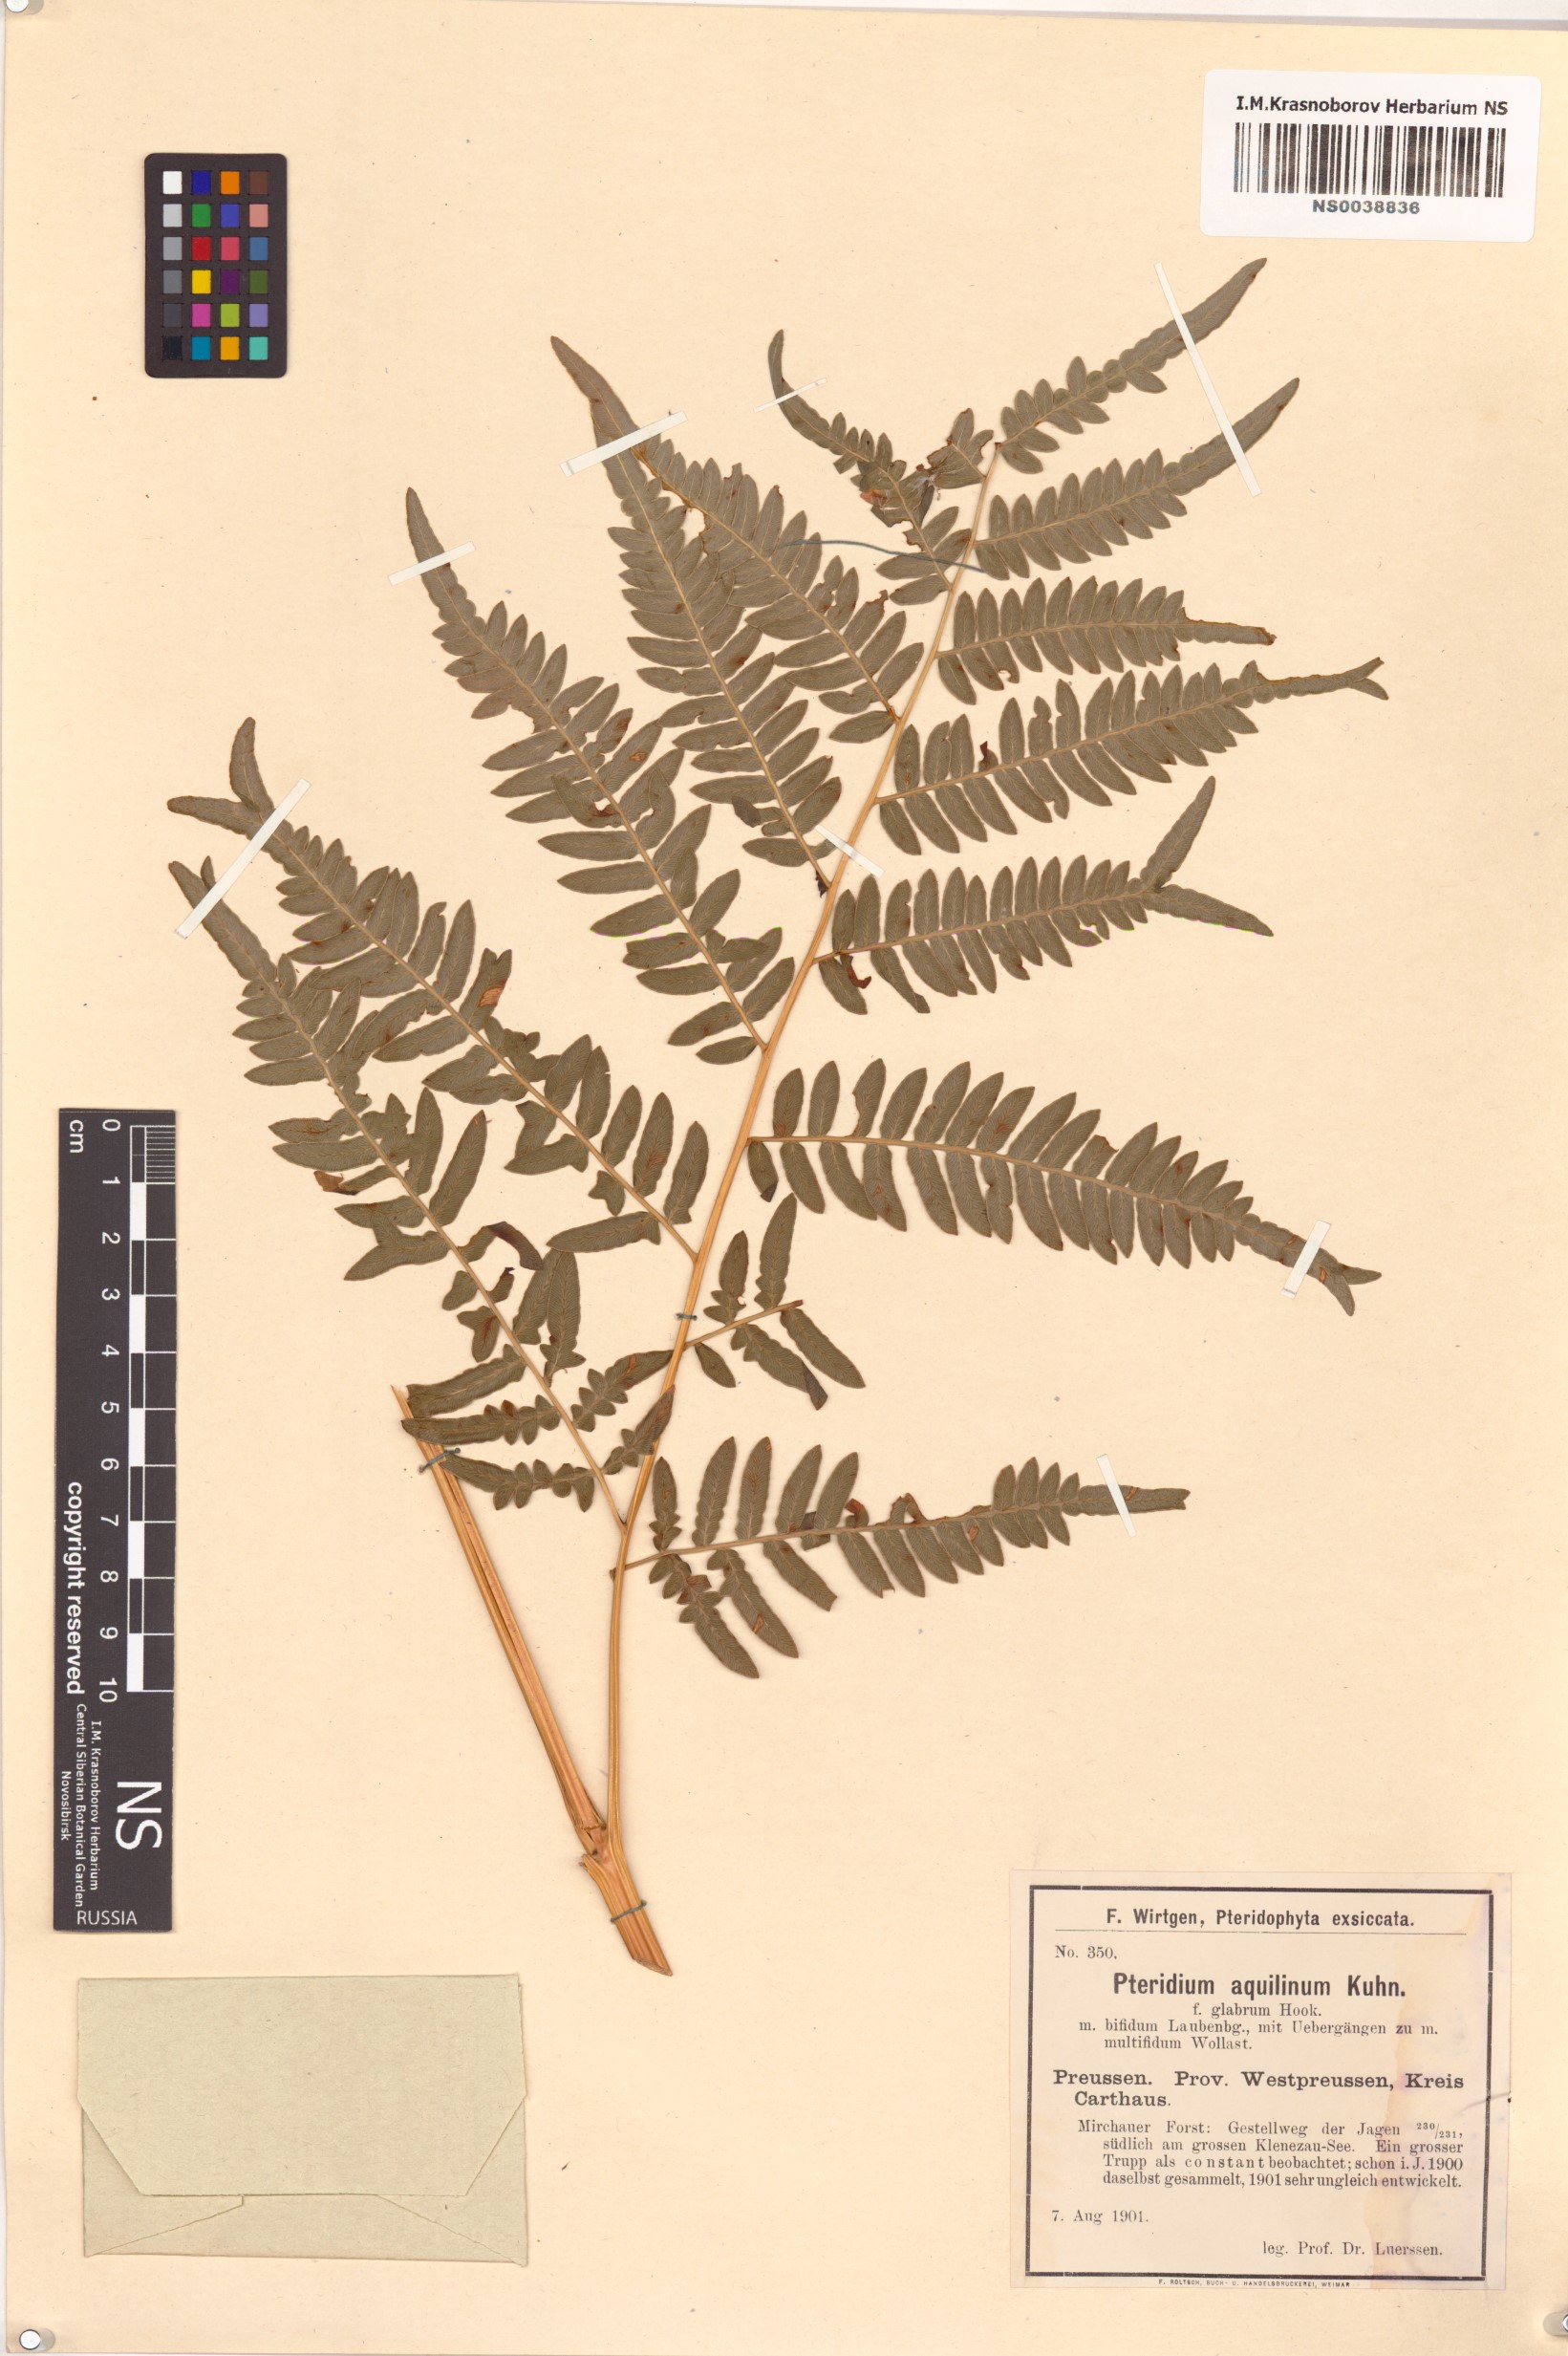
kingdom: Plantae
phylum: Tracheophyta
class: Polypodiopsida
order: Polypodiales
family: Dennstaedtiaceae
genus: Pteridium
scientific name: Pteridium aquilinum
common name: Bracken
